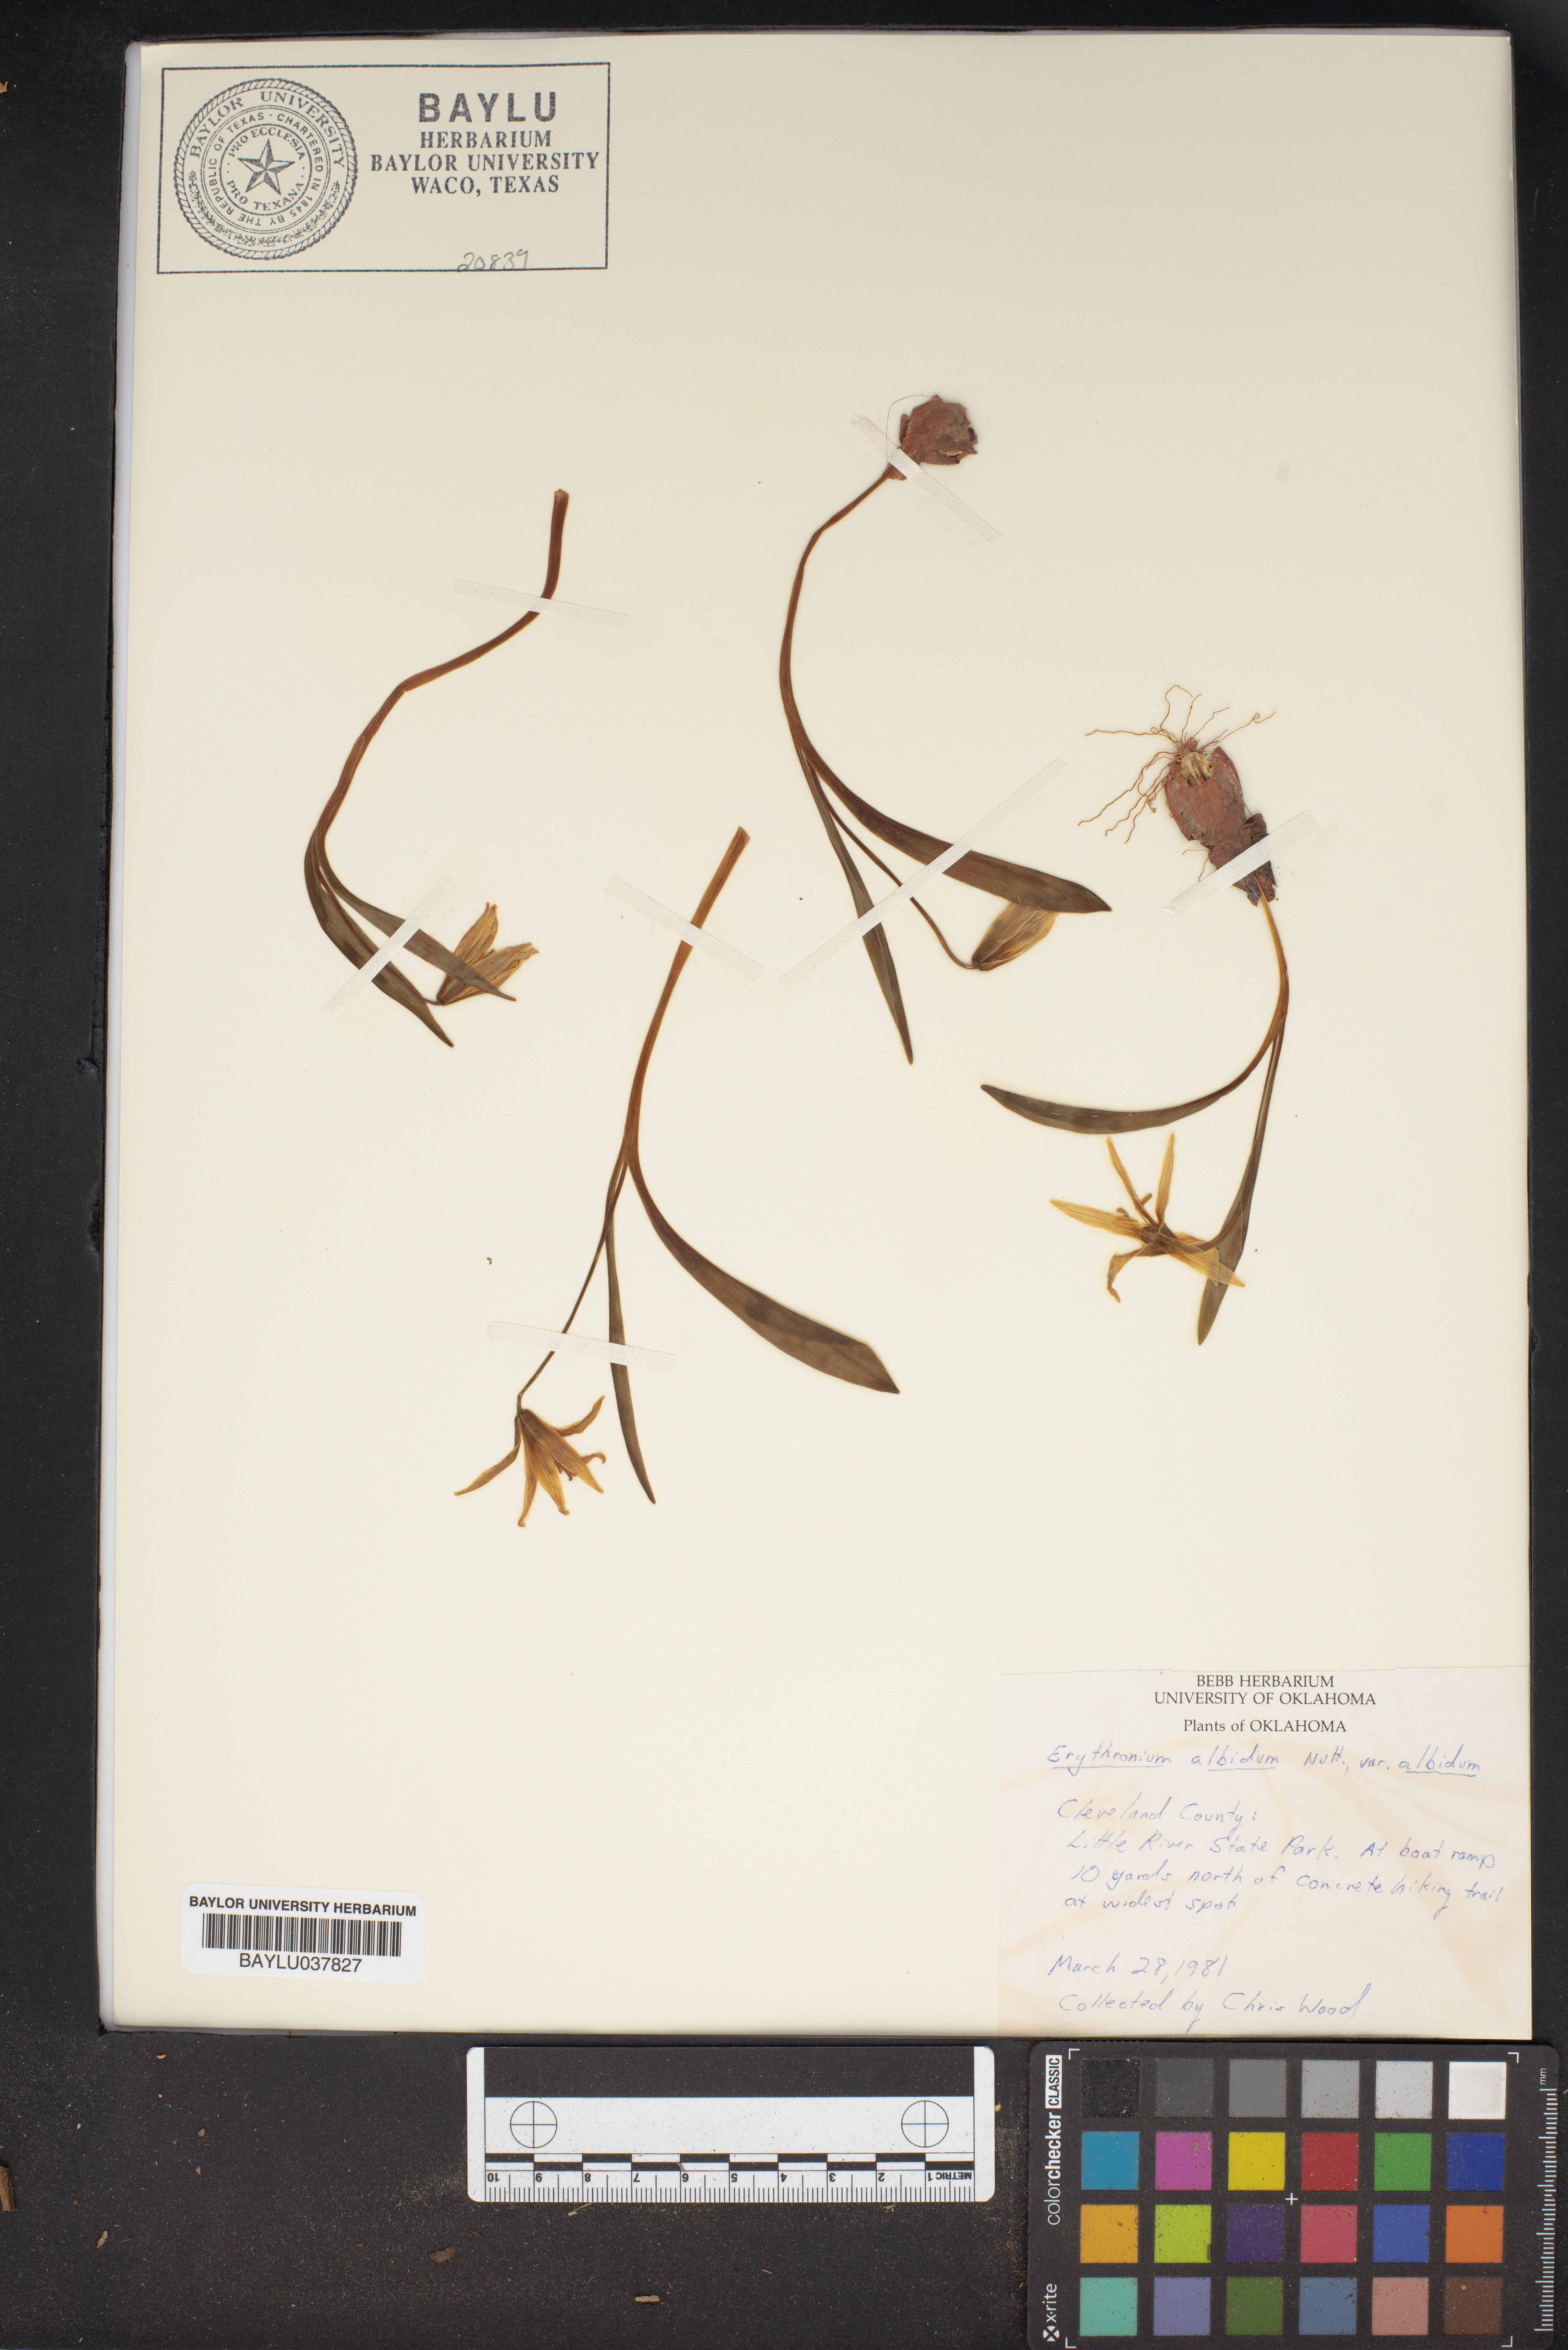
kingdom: Plantae
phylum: Tracheophyta
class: Liliopsida
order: Liliales
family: Liliaceae
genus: Erythronium
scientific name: Erythronium albidum
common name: White trout-lily
